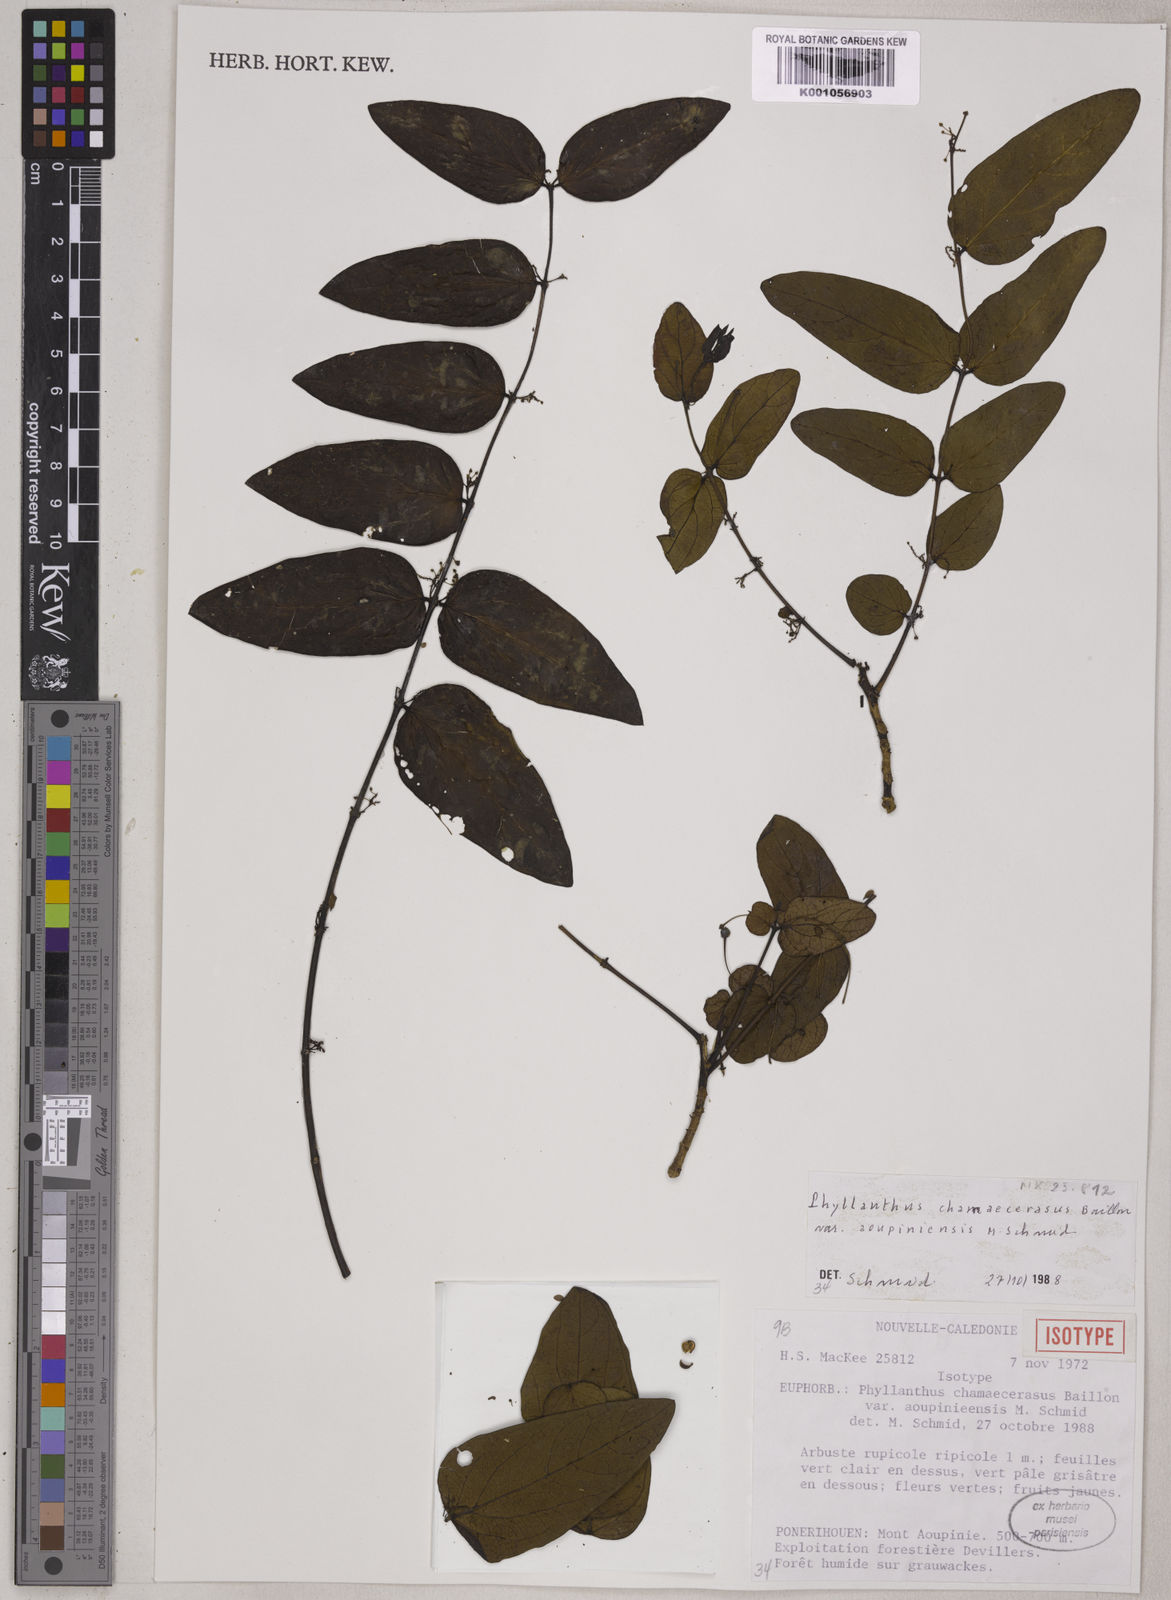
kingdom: Plantae
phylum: Tracheophyta
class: Magnoliopsida
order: Malpighiales
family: Phyllanthaceae
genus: Phyllanthus
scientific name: Phyllanthus chamaecerasus
